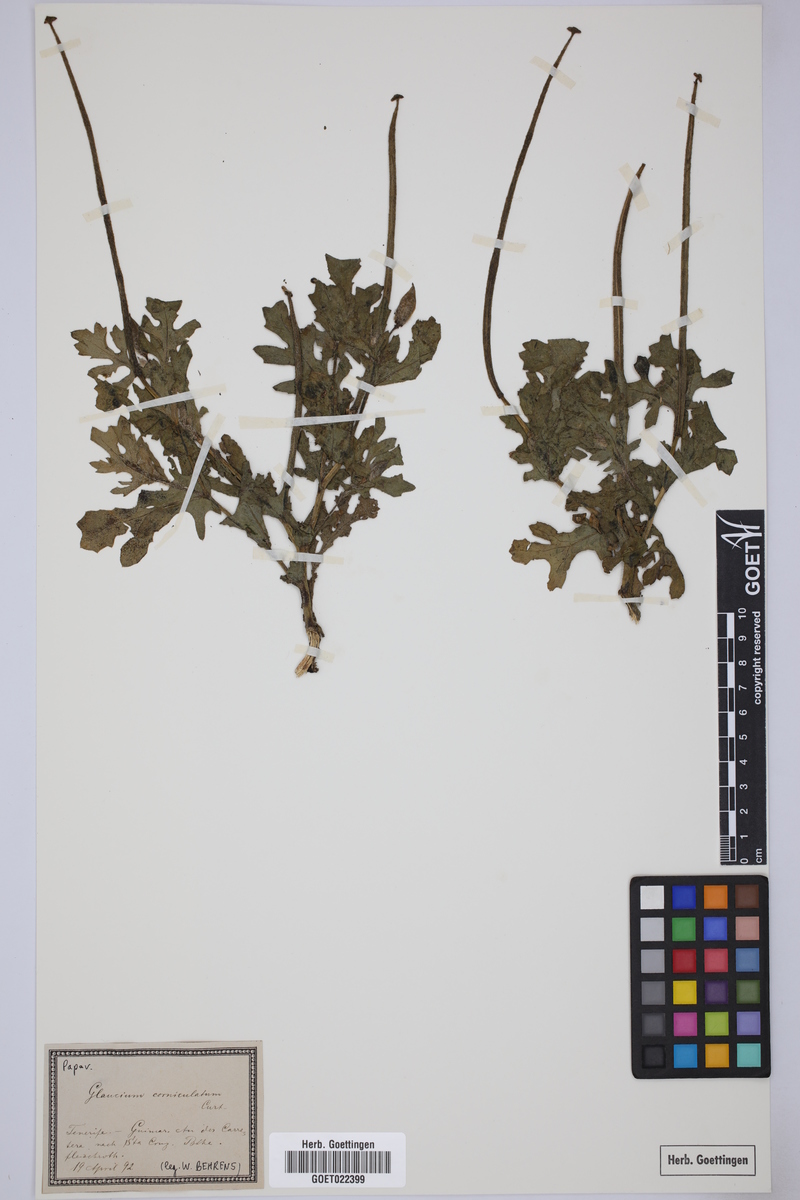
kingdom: Plantae
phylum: Tracheophyta
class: Magnoliopsida
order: Ranunculales
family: Papaveraceae
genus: Glaucium
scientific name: Glaucium corniculatum
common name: Red horned-poppy
